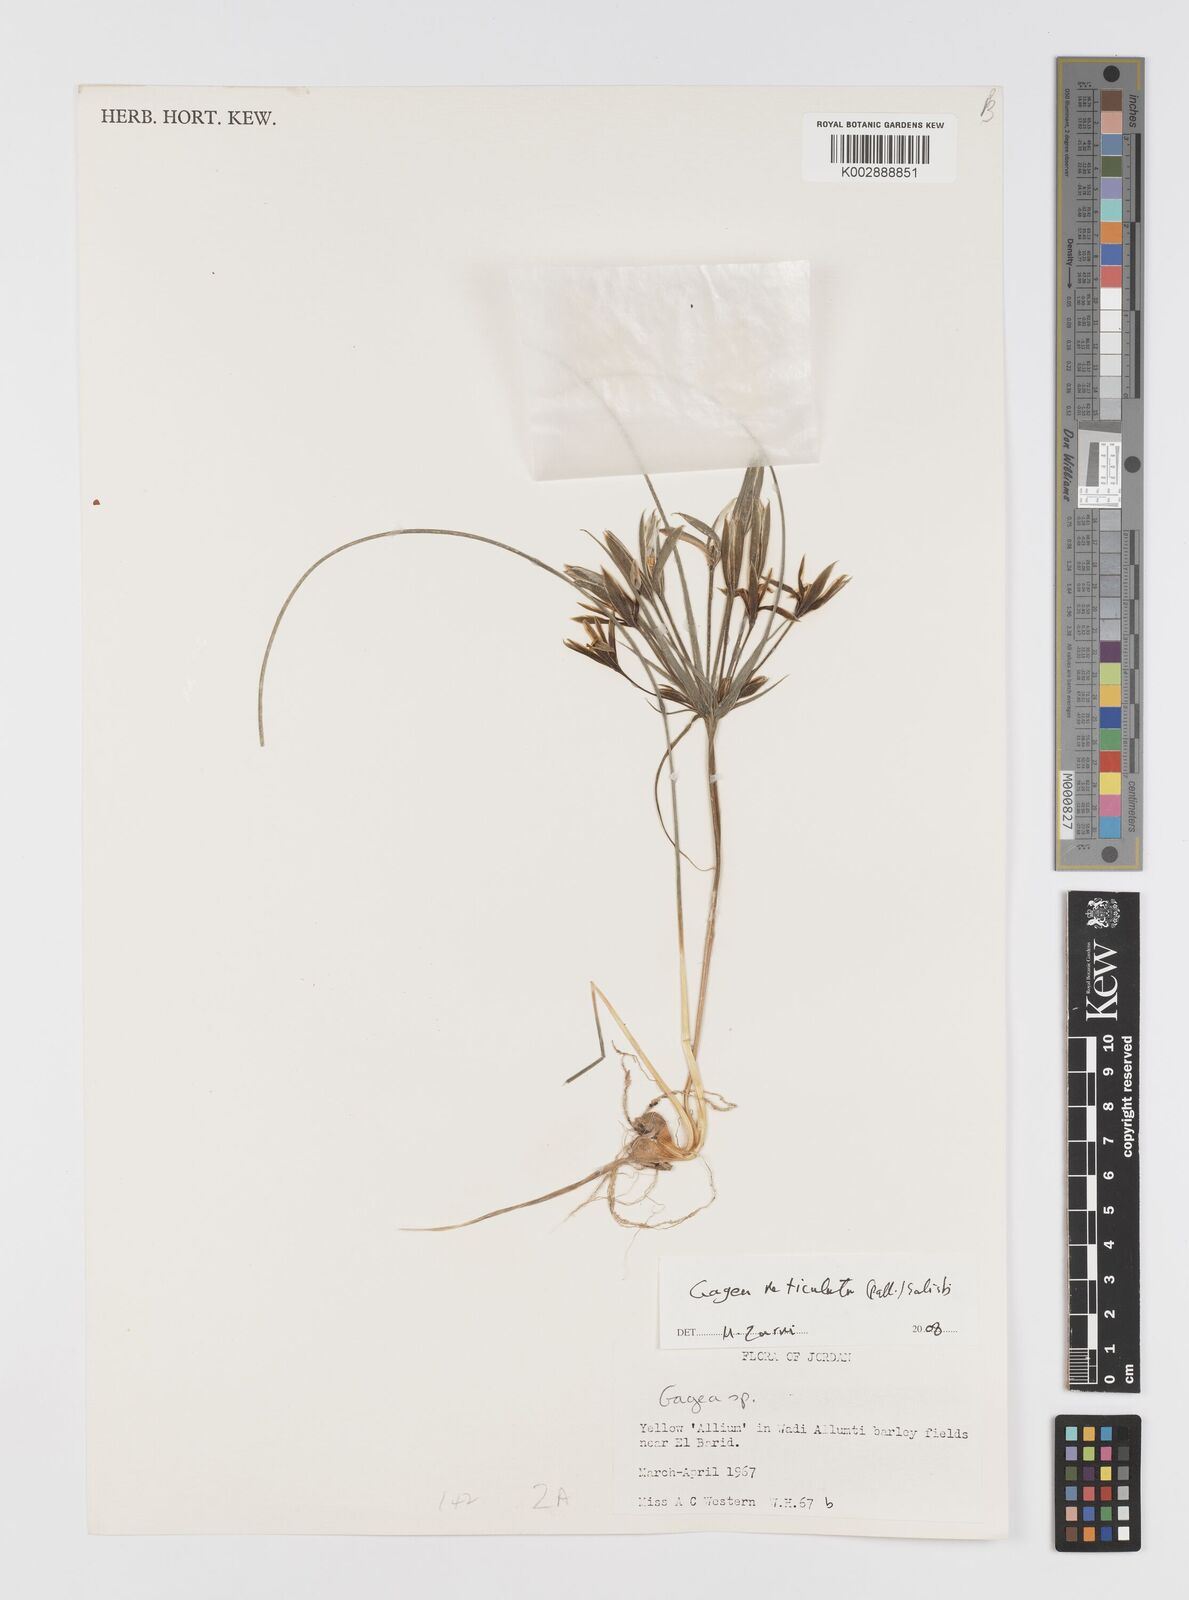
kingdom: Plantae
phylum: Tracheophyta
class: Liliopsida
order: Liliales
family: Liliaceae
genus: Gagea
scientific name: Gagea
